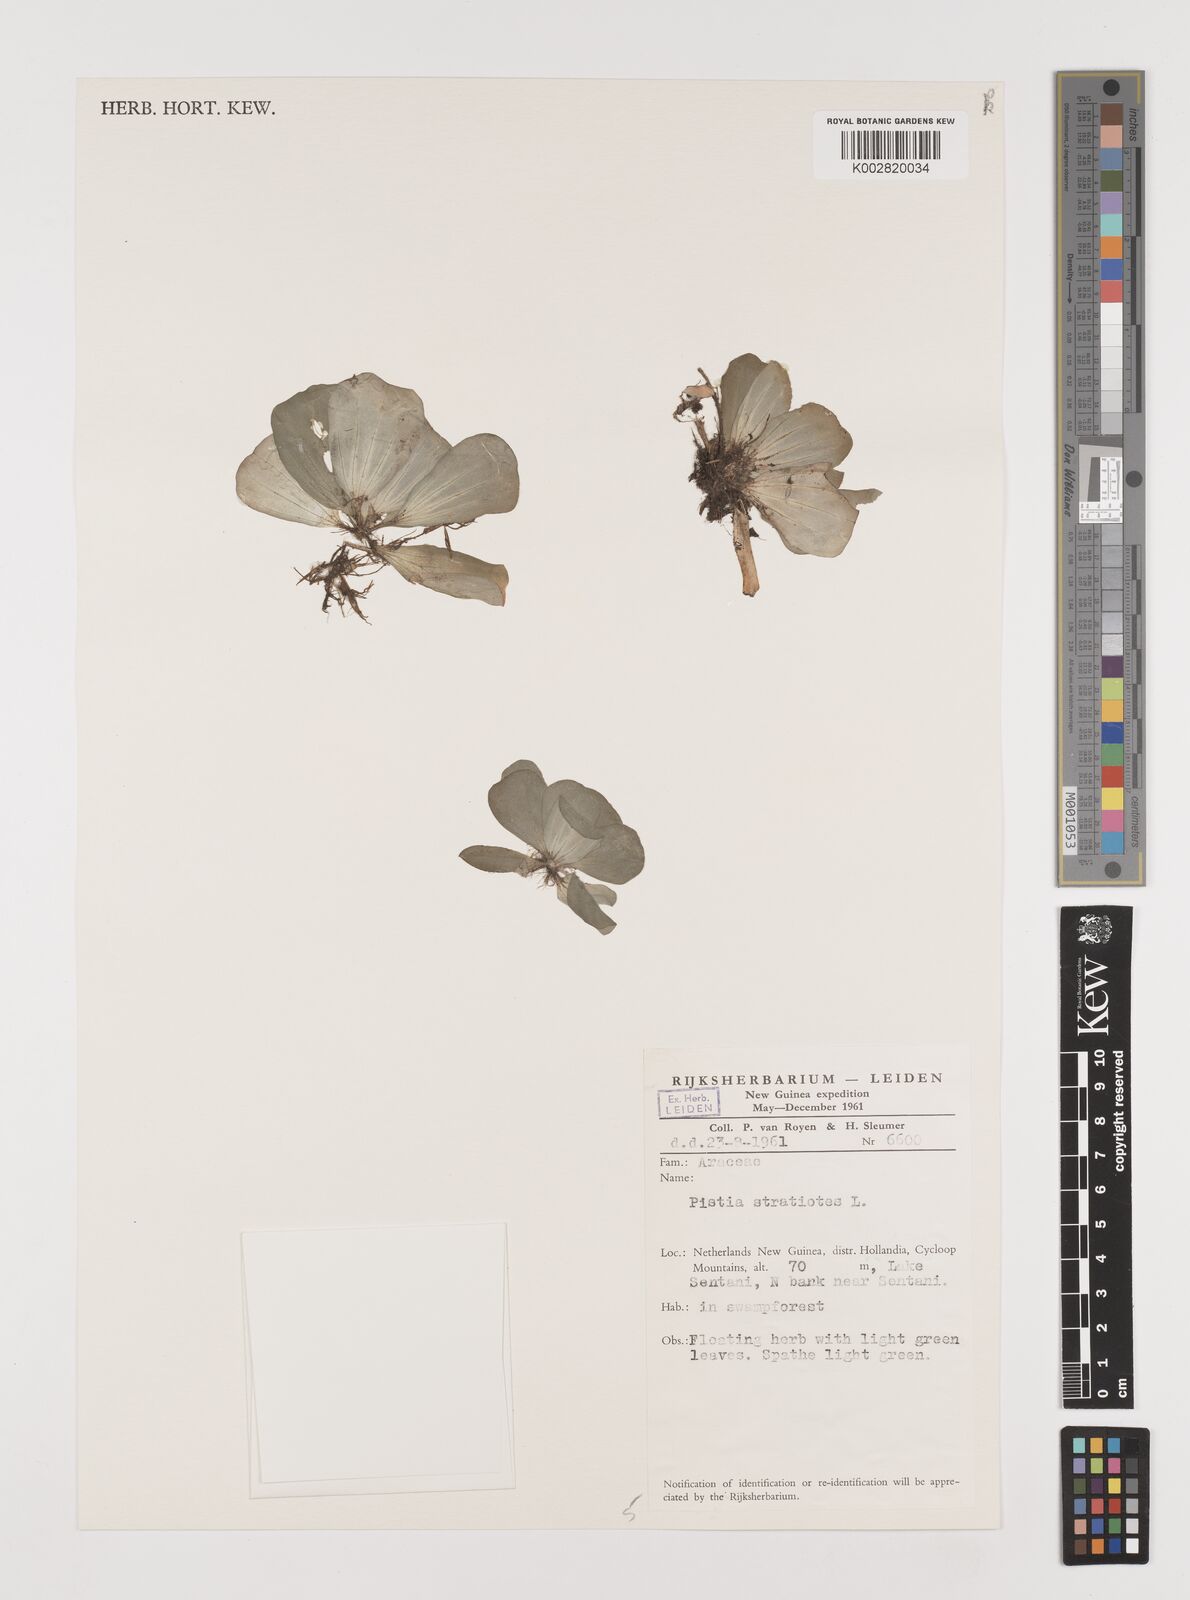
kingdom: Plantae
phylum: Tracheophyta
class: Liliopsida
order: Alismatales
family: Araceae
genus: Pistia
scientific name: Pistia stratiotes
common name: Water lettuce
